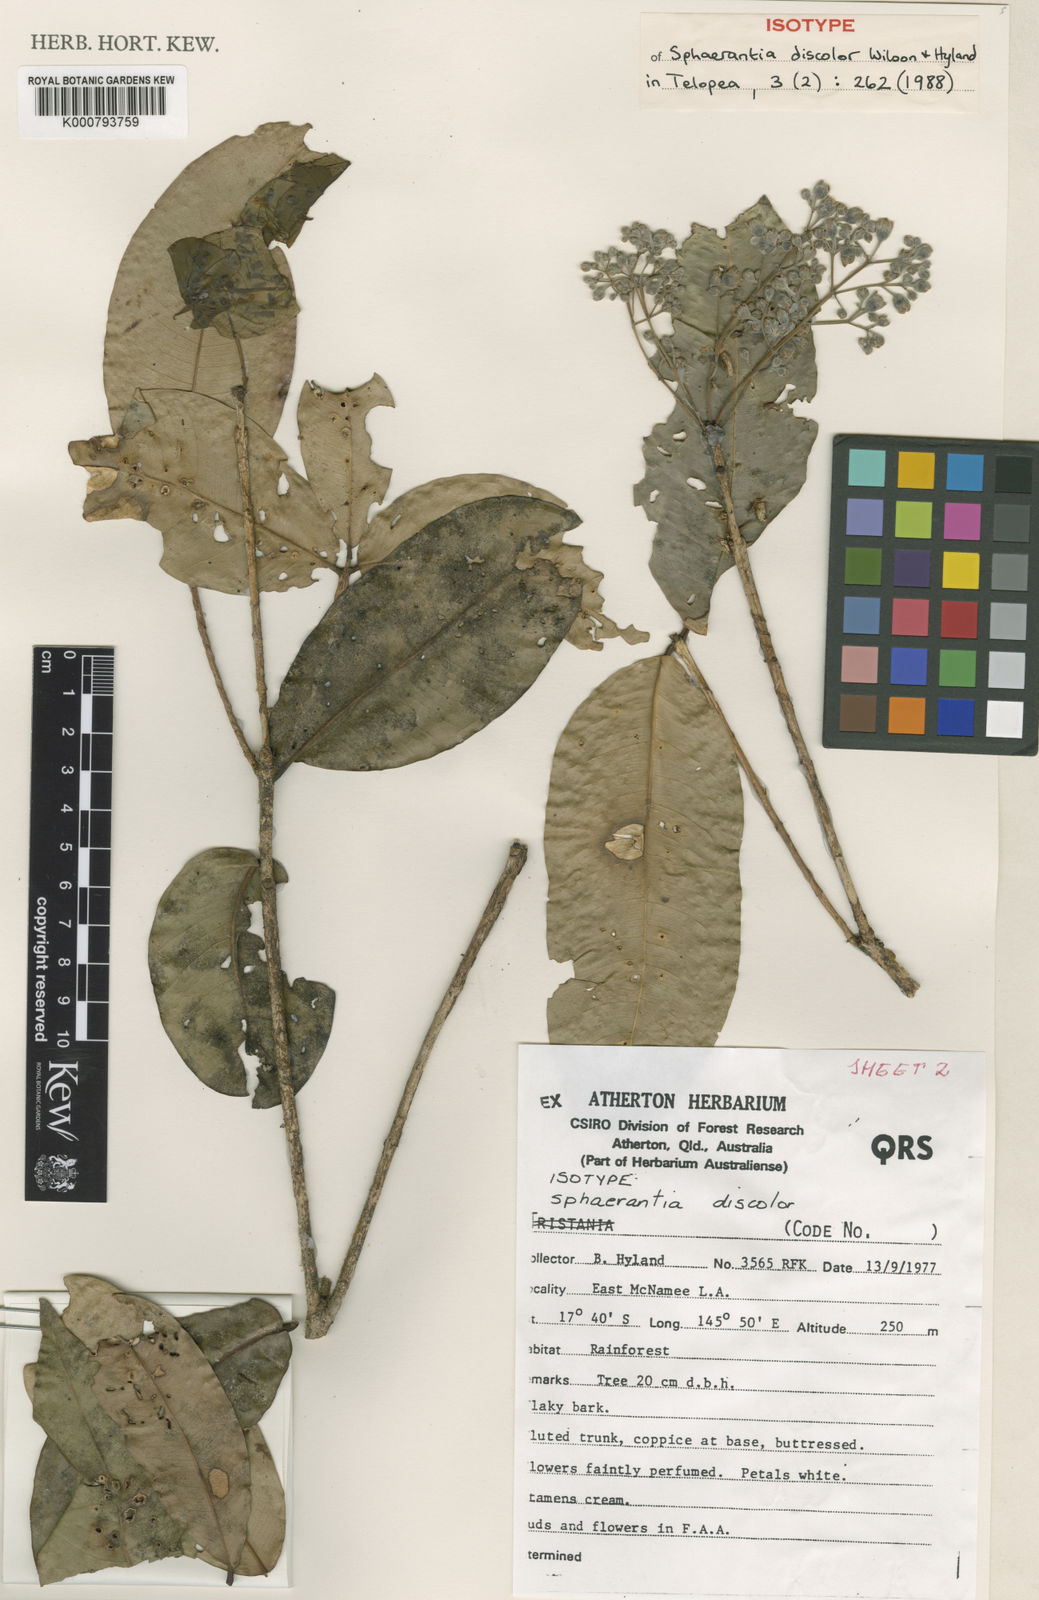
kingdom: Plantae
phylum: Tracheophyta
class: Magnoliopsida
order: Myrtales
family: Myrtaceae
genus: Sphaerantia
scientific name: Sphaerantia discolor
